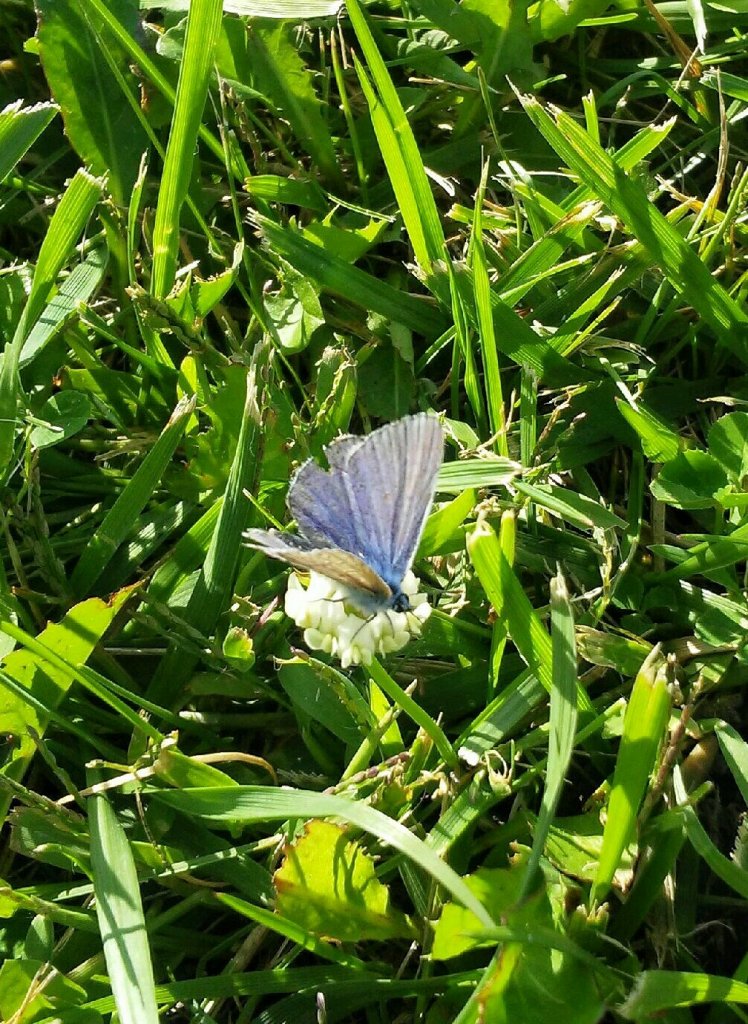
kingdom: Animalia
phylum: Arthropoda
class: Insecta
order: Lepidoptera
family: Lycaenidae
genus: Celastrina
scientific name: Celastrina lucia
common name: Northern Spring Azure
